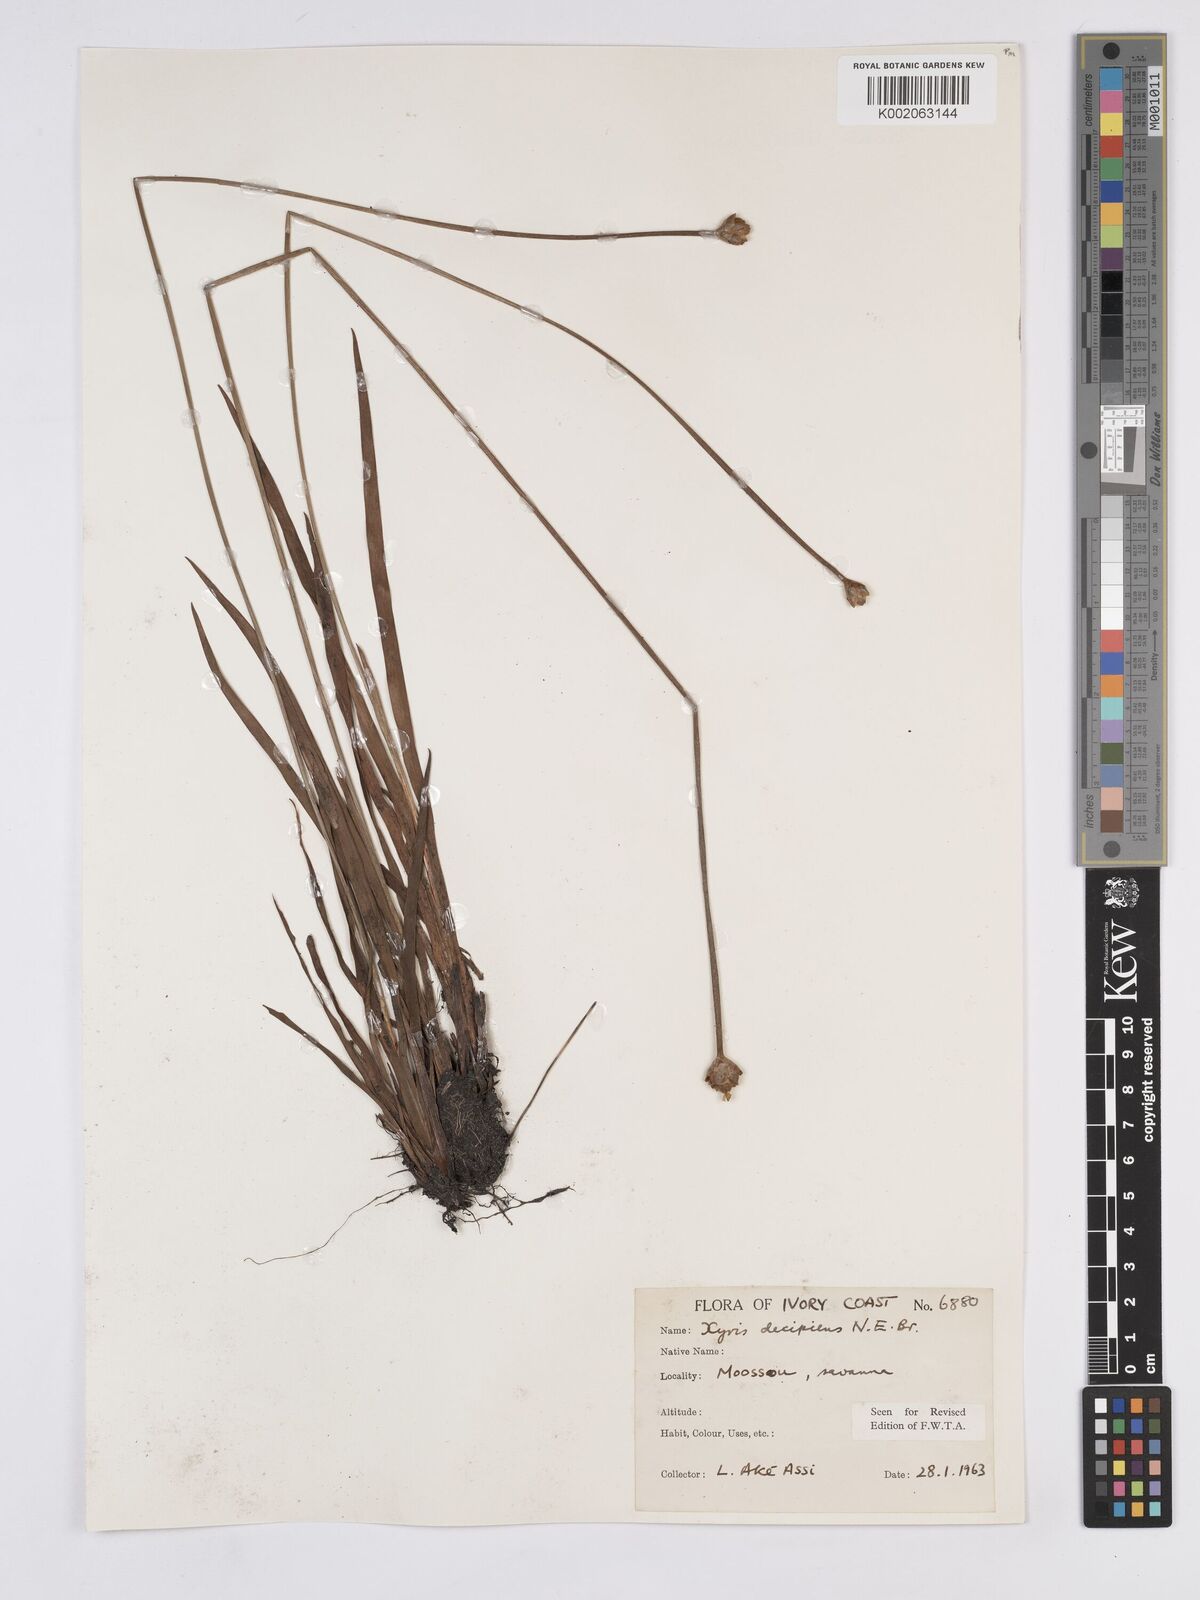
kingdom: Plantae
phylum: Tracheophyta
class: Liliopsida
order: Poales
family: Xyridaceae
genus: Xyris
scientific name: Xyris decipiens
